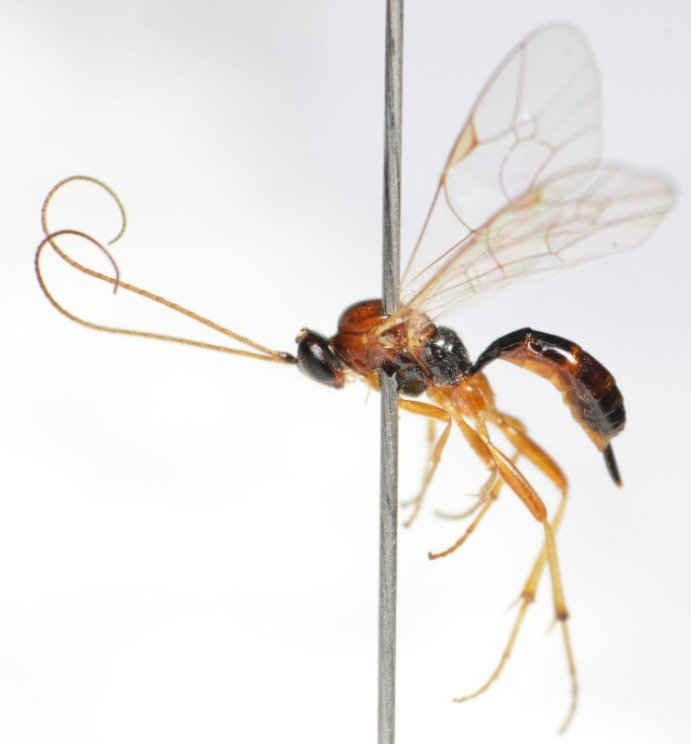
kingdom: Animalia
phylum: Arthropoda
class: Insecta
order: Hymenoptera
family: Ichneumonidae
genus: Mesochorus
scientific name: Mesochorus rufoniger
